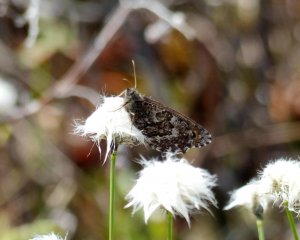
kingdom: Animalia
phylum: Arthropoda
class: Insecta
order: Lepidoptera
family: Nymphalidae
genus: Oeneis
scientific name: Oeneis jutta
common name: Jutta Arctic
